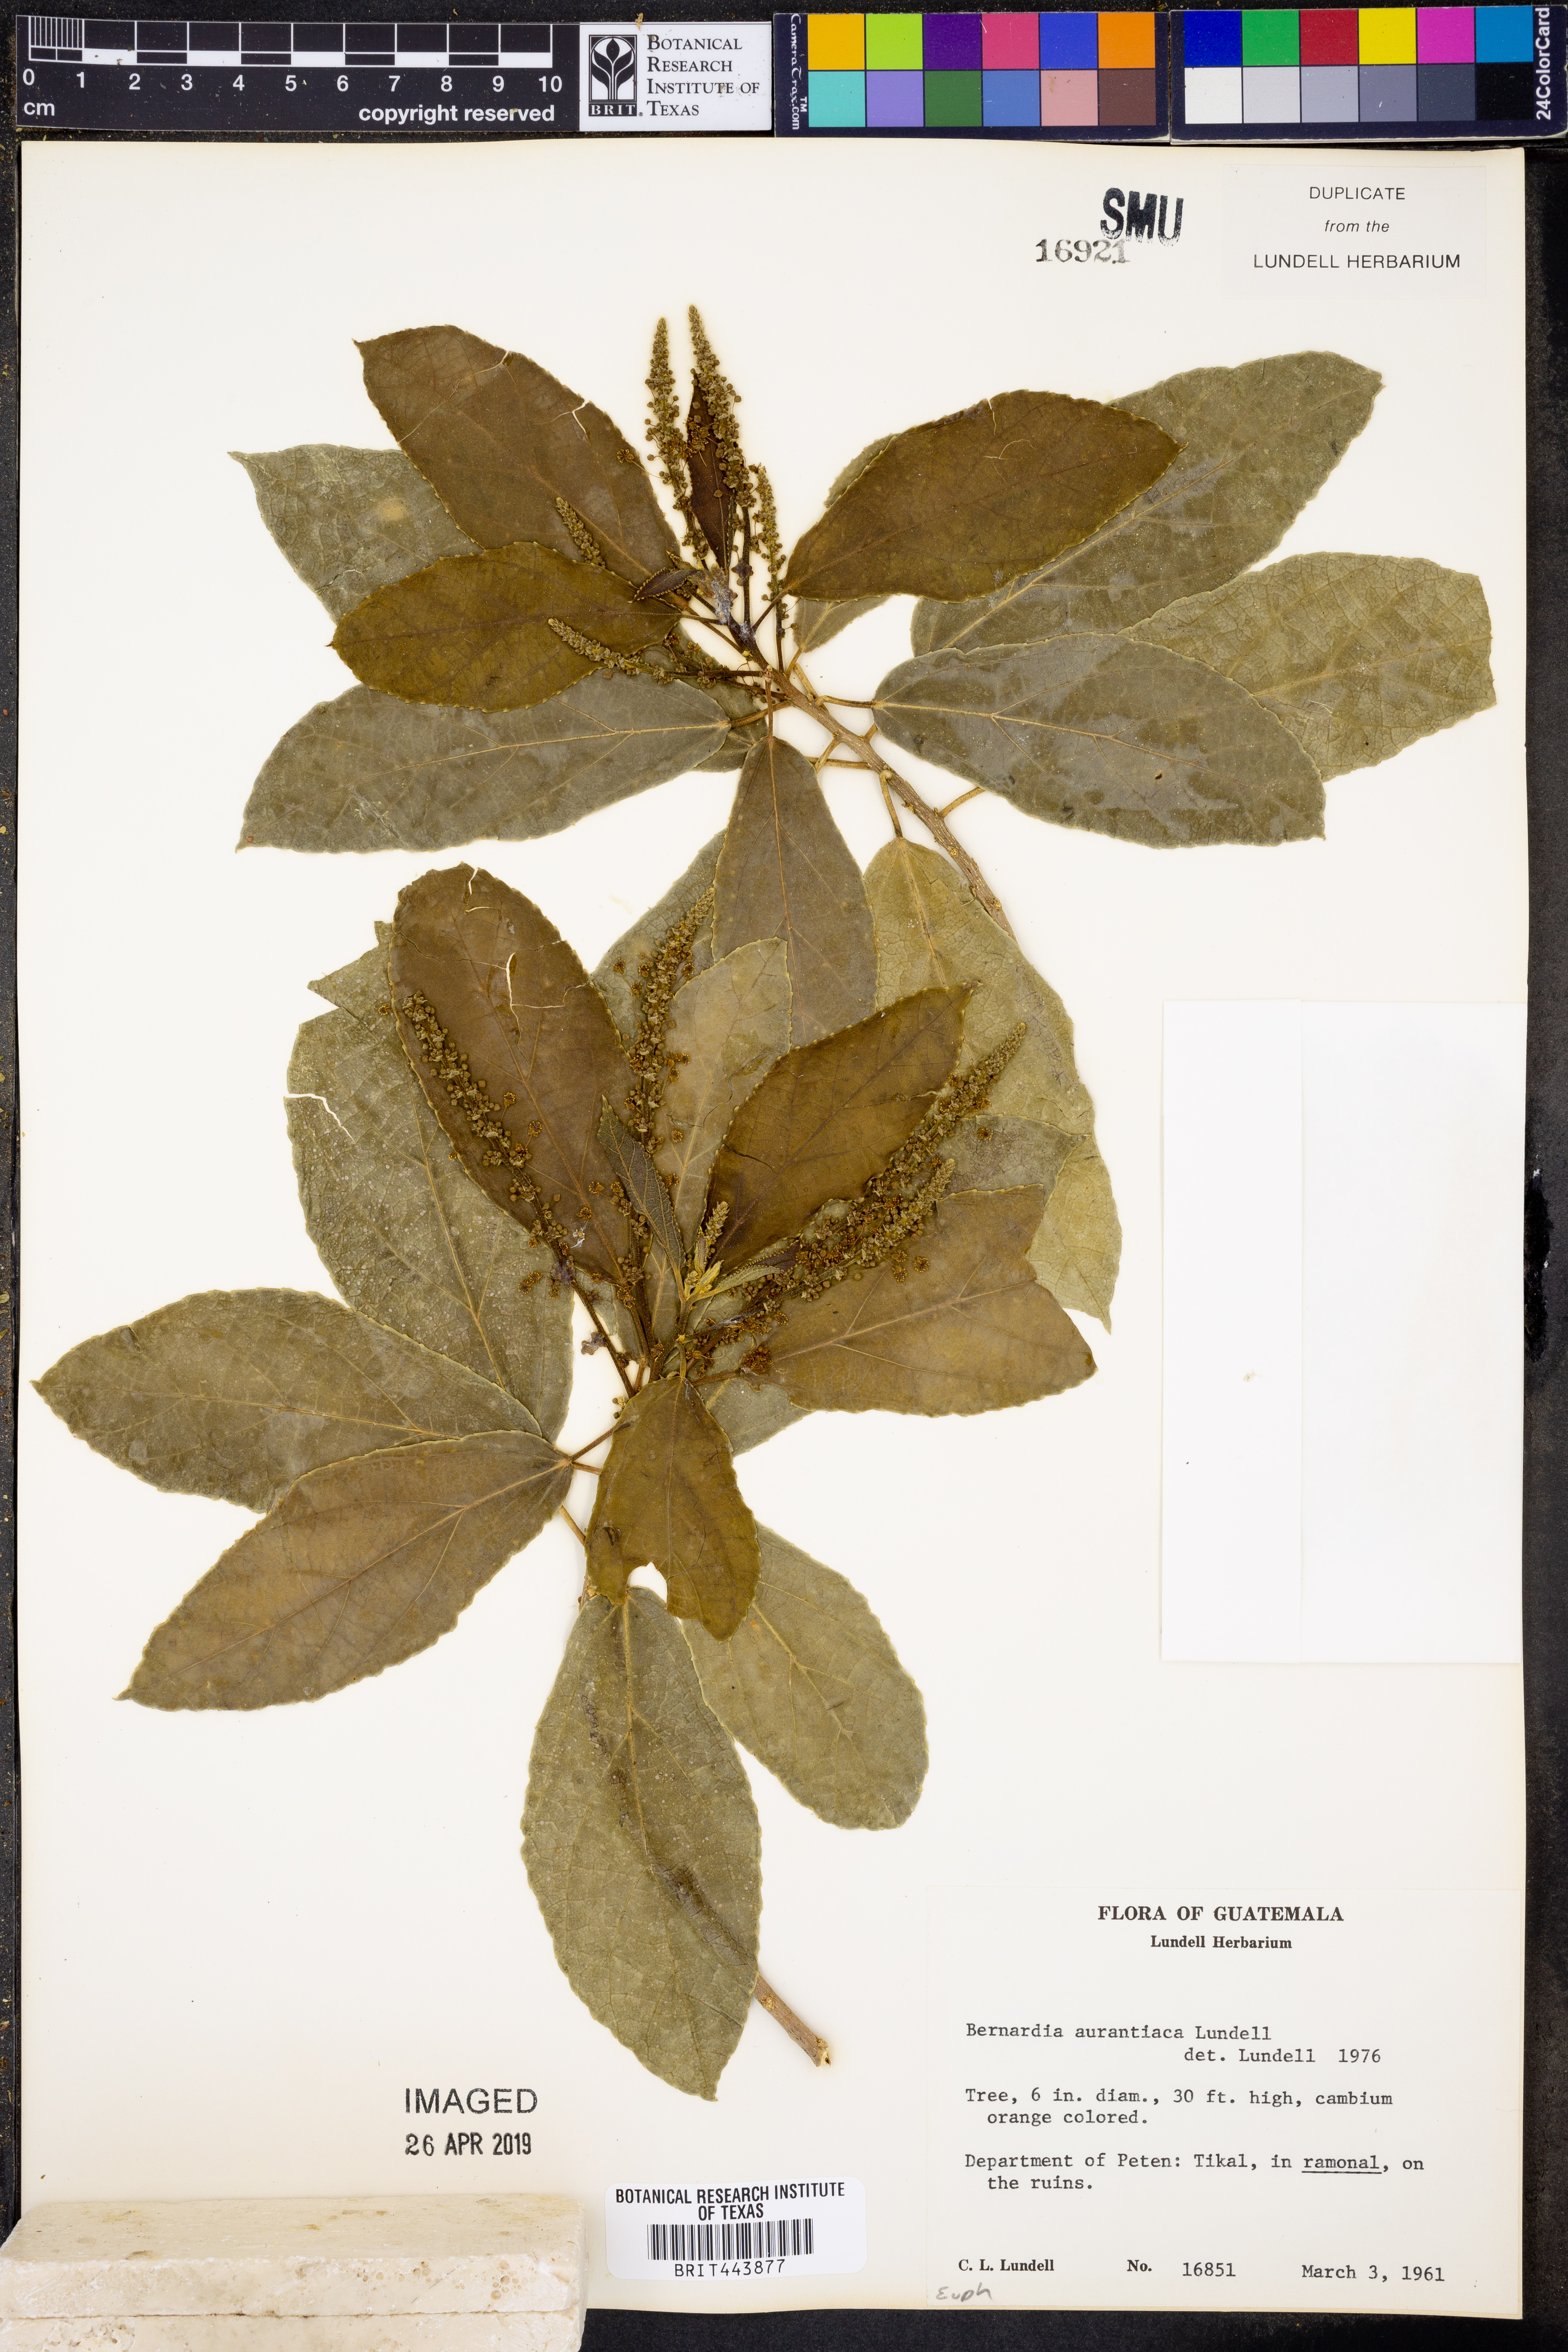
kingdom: Plantae
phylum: Tracheophyta
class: Magnoliopsida
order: Malpighiales
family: Euphorbiaceae
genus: Bernardia
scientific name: Bernardia dodecandra
